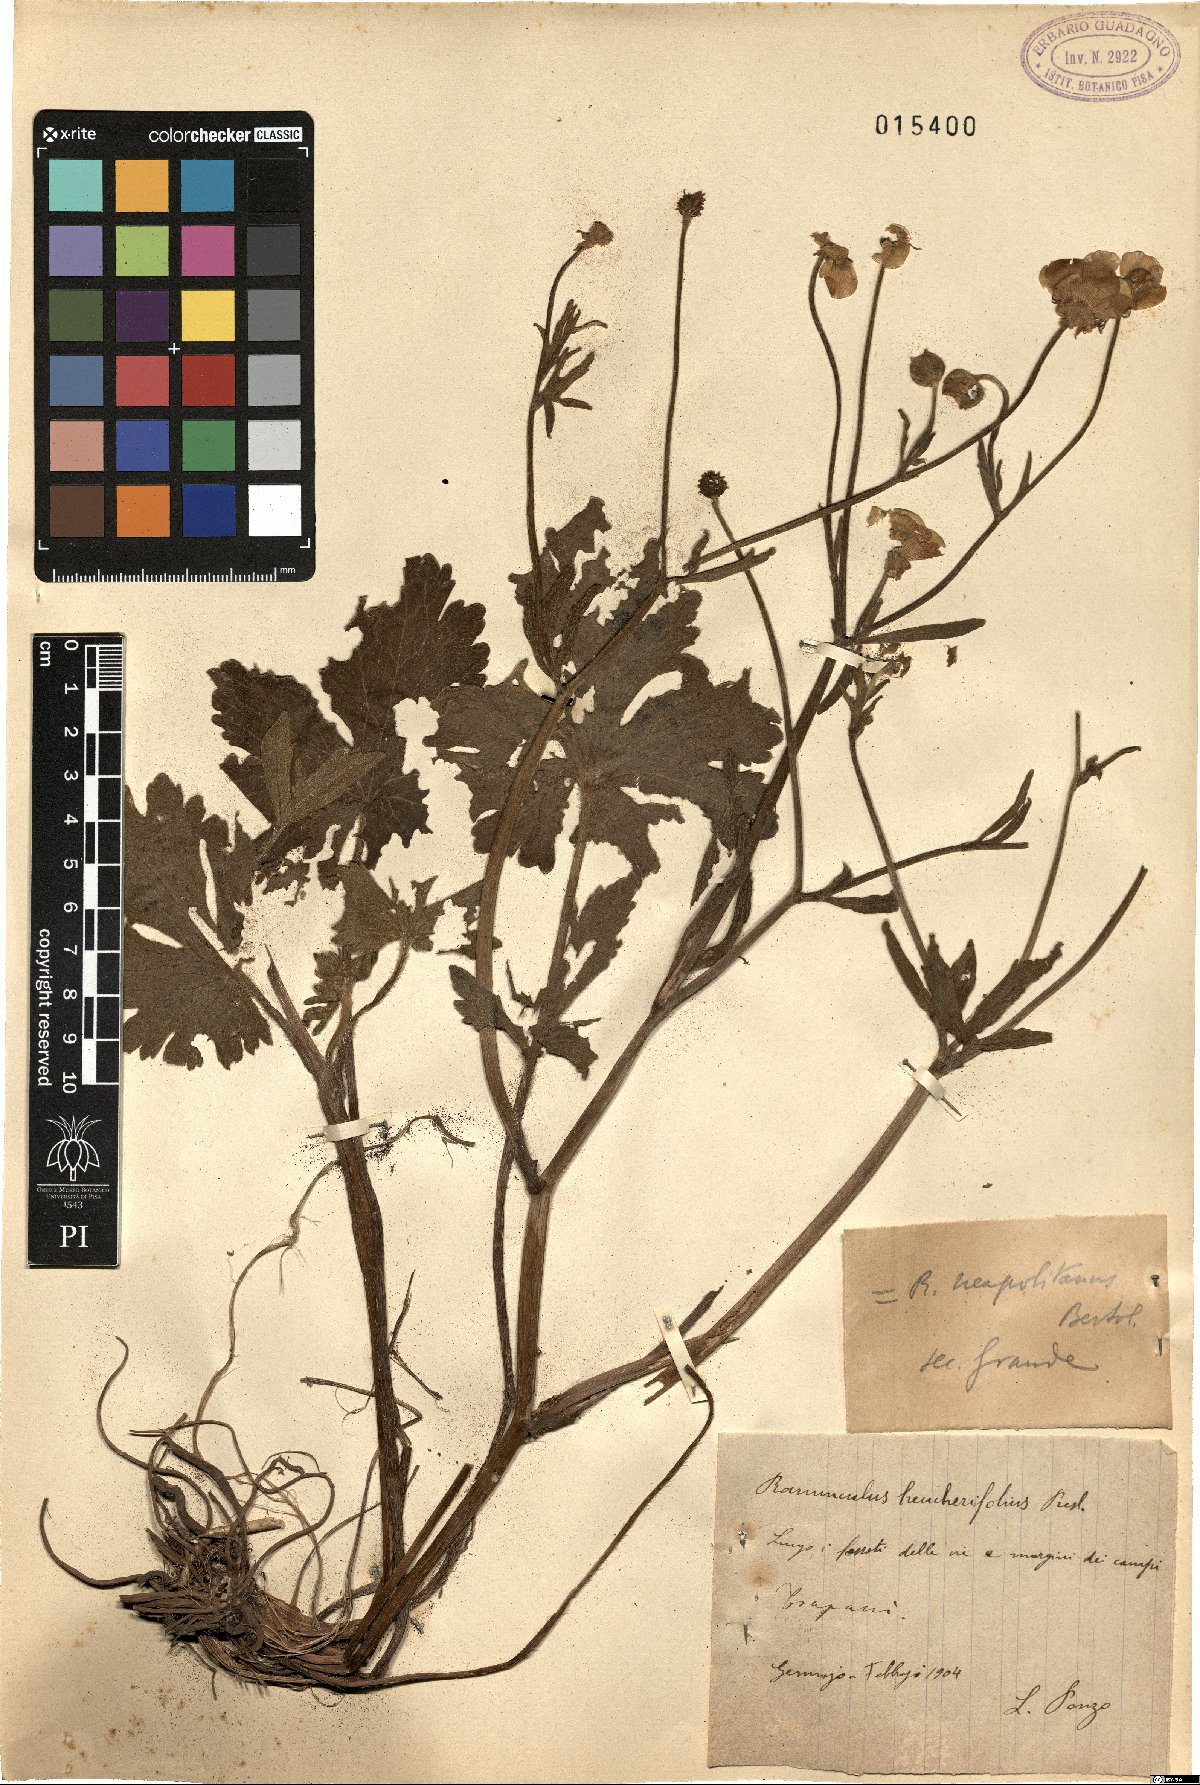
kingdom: Plantae
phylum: Tracheophyta
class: Magnoliopsida
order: Ranunculales
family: Ranunculaceae
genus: Ranunculus
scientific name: Ranunculus neapolitanus
